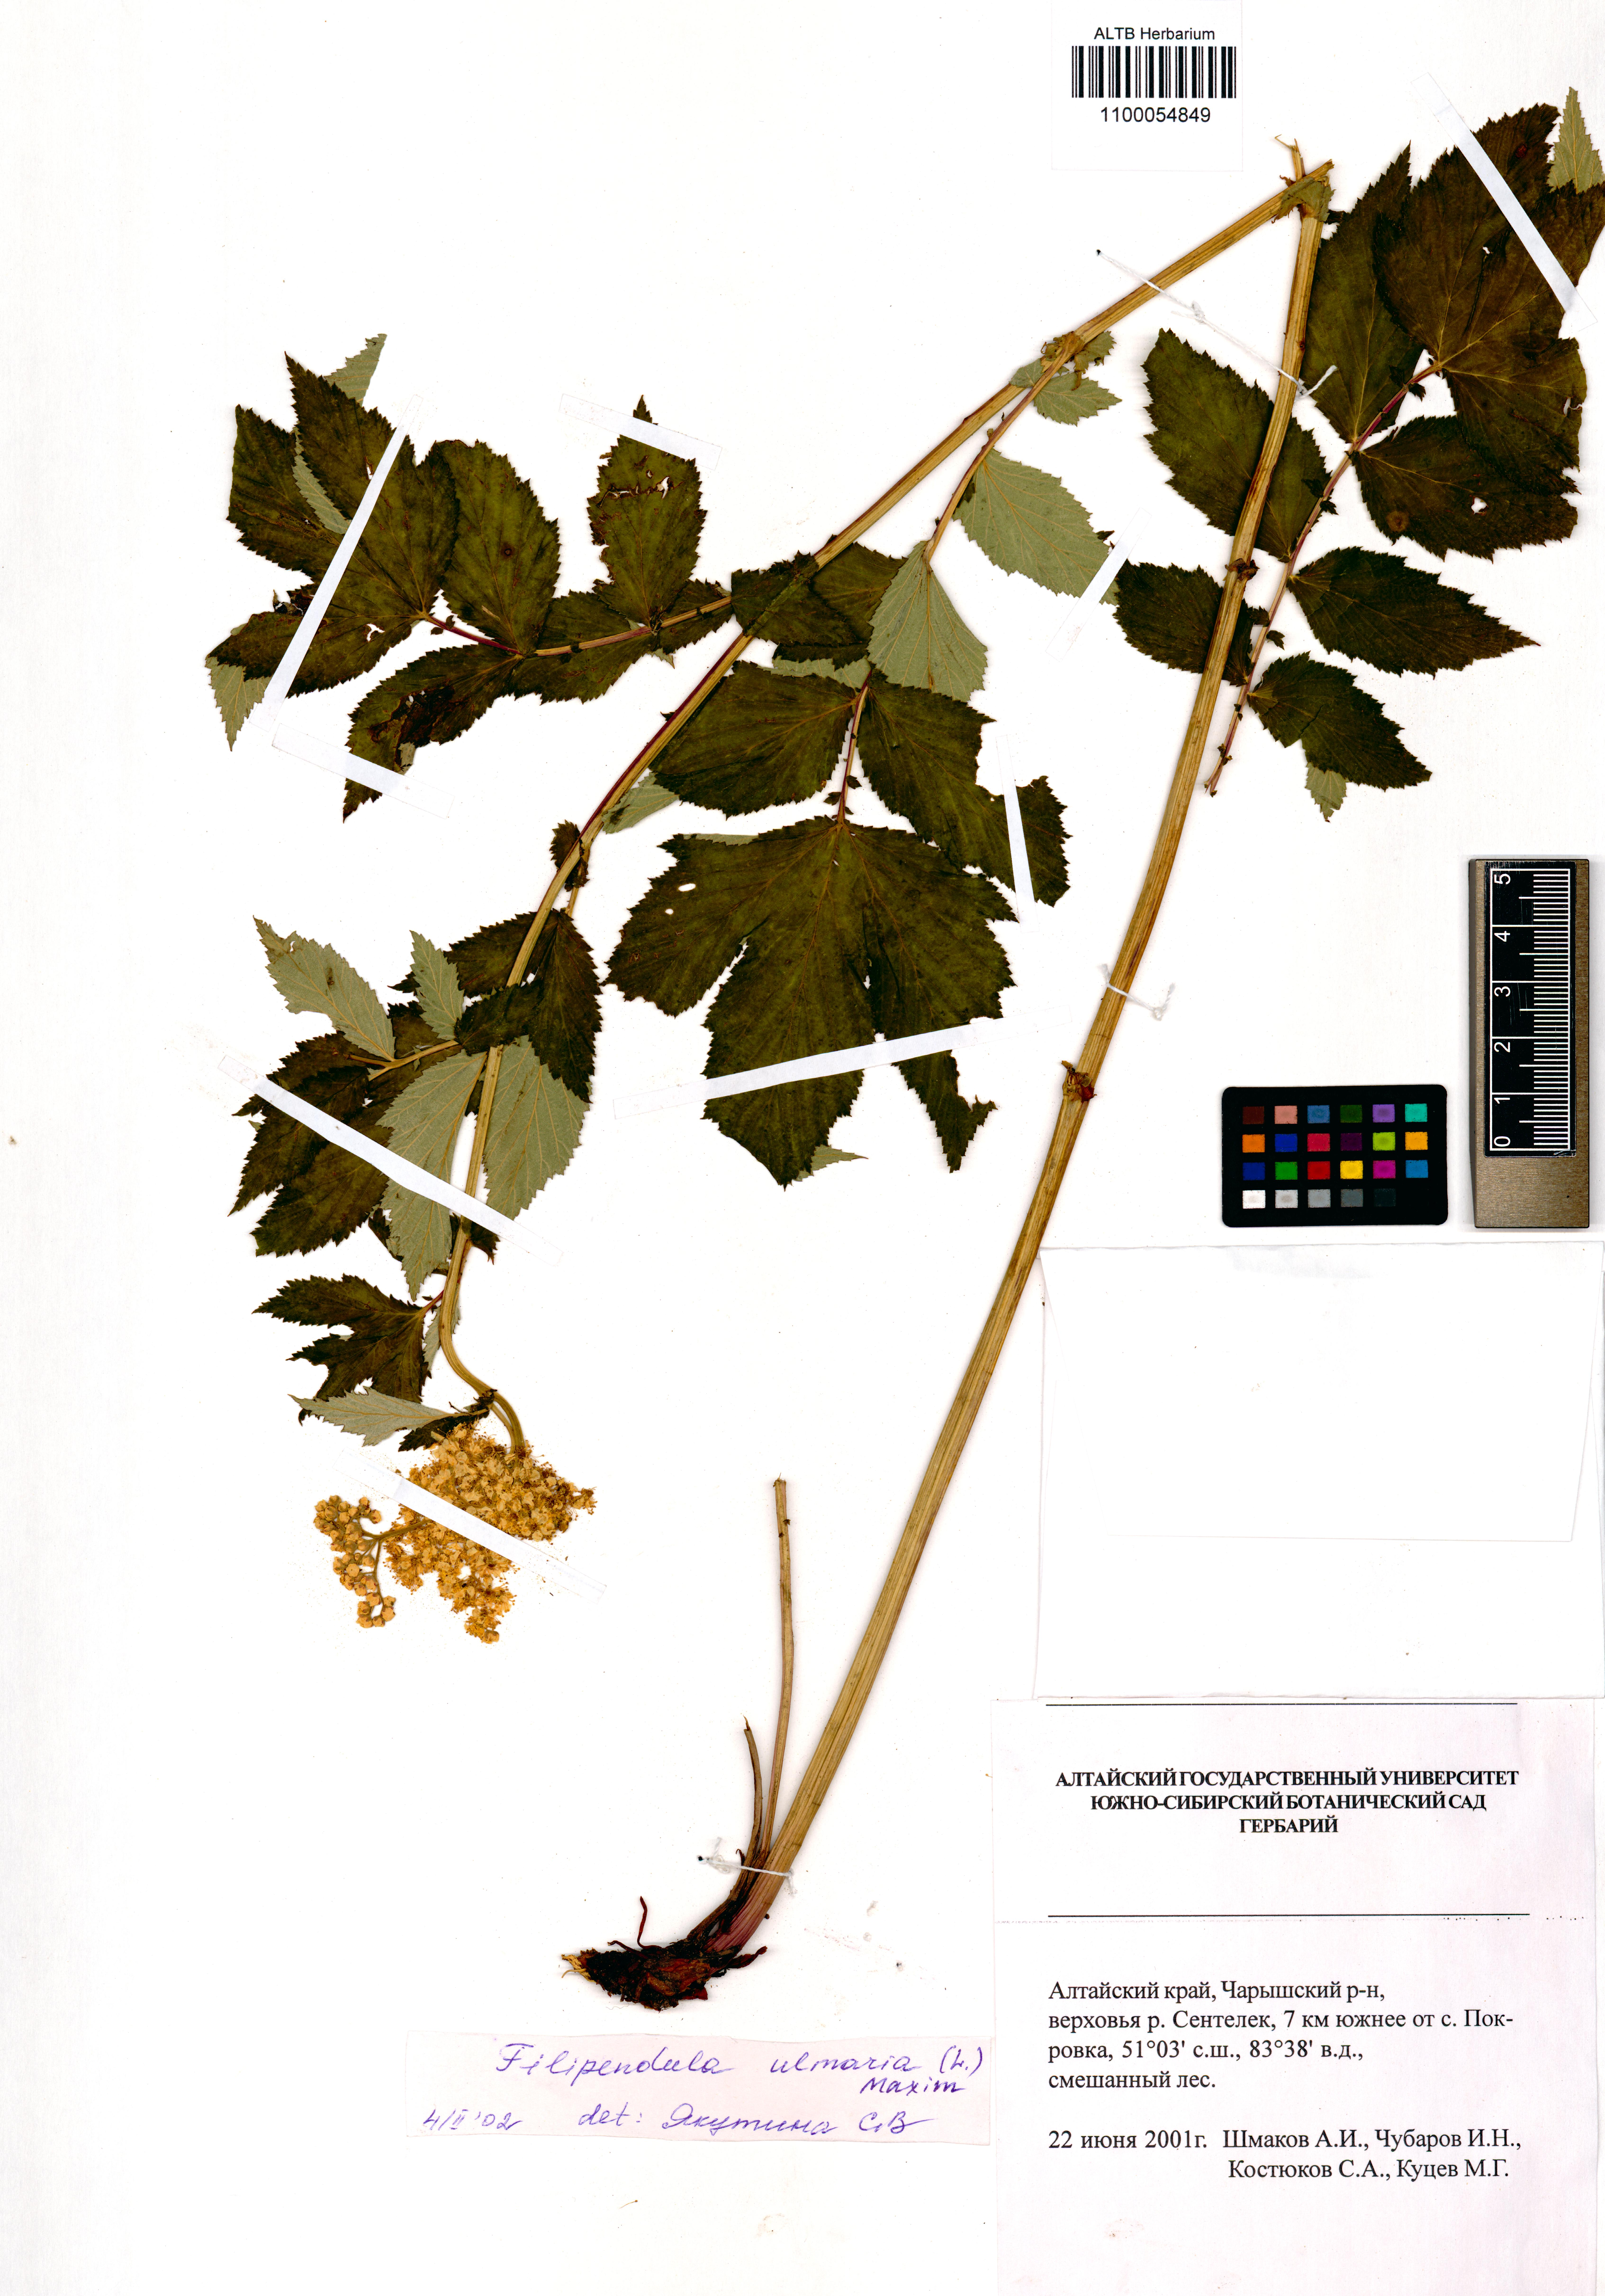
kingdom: Plantae
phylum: Tracheophyta
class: Magnoliopsida
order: Rosales
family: Rosaceae
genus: Filipendula
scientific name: Filipendula ulmaria
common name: Meadowsweet
